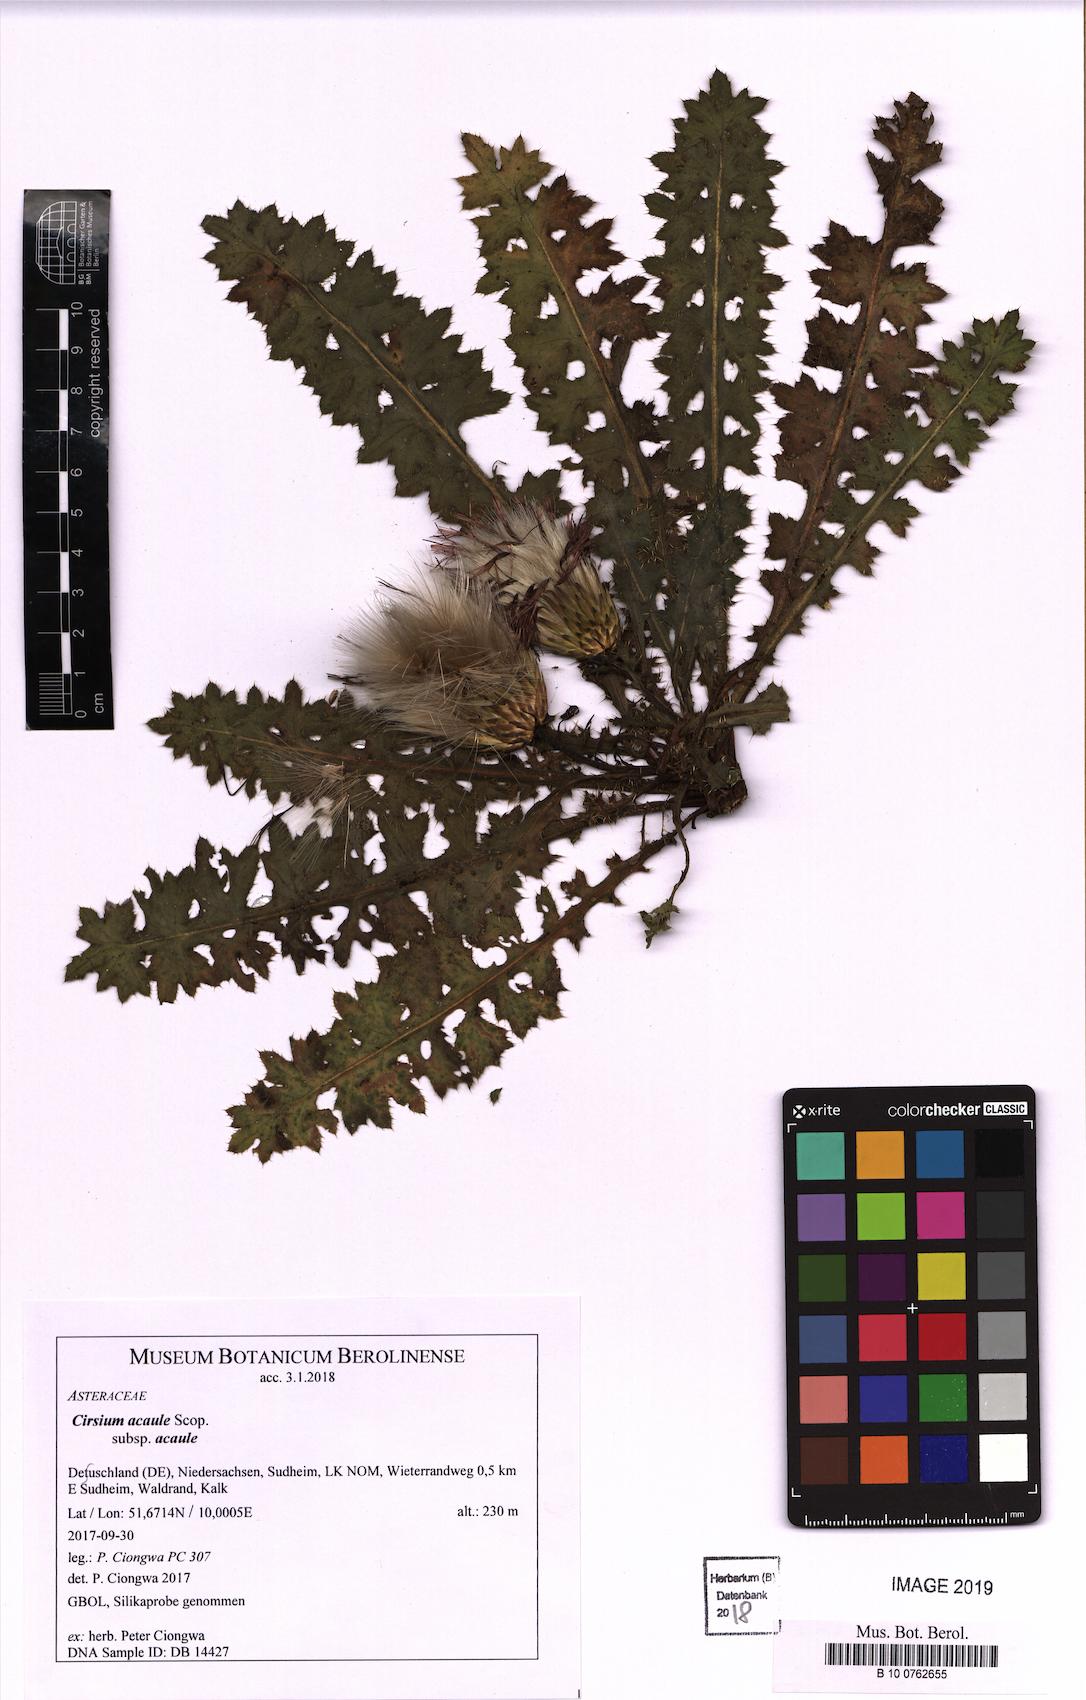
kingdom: Plantae
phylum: Tracheophyta
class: Magnoliopsida
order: Asterales
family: Asteraceae
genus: Cirsium
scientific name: Cirsium acaule
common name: Dwarf thistle
